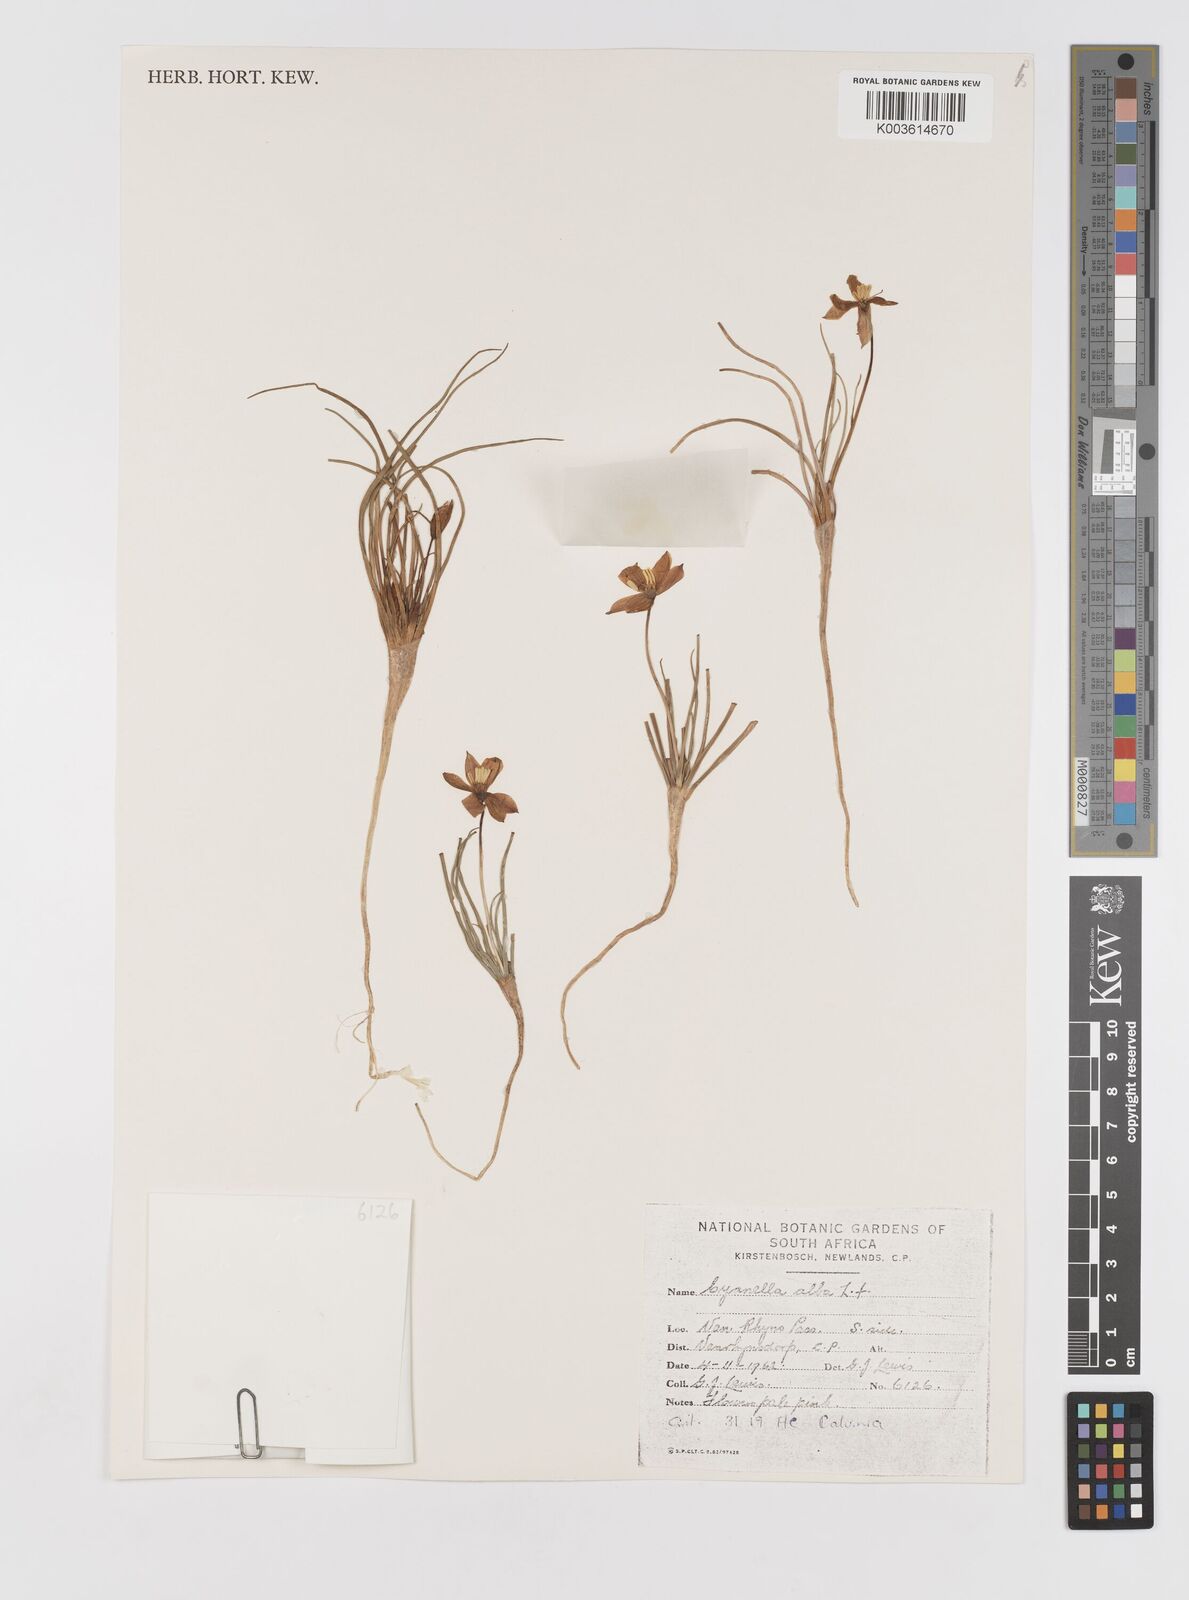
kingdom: Plantae
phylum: Tracheophyta
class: Liliopsida
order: Asparagales
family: Tecophilaeaceae
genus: Cyanella
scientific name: Cyanella alba
